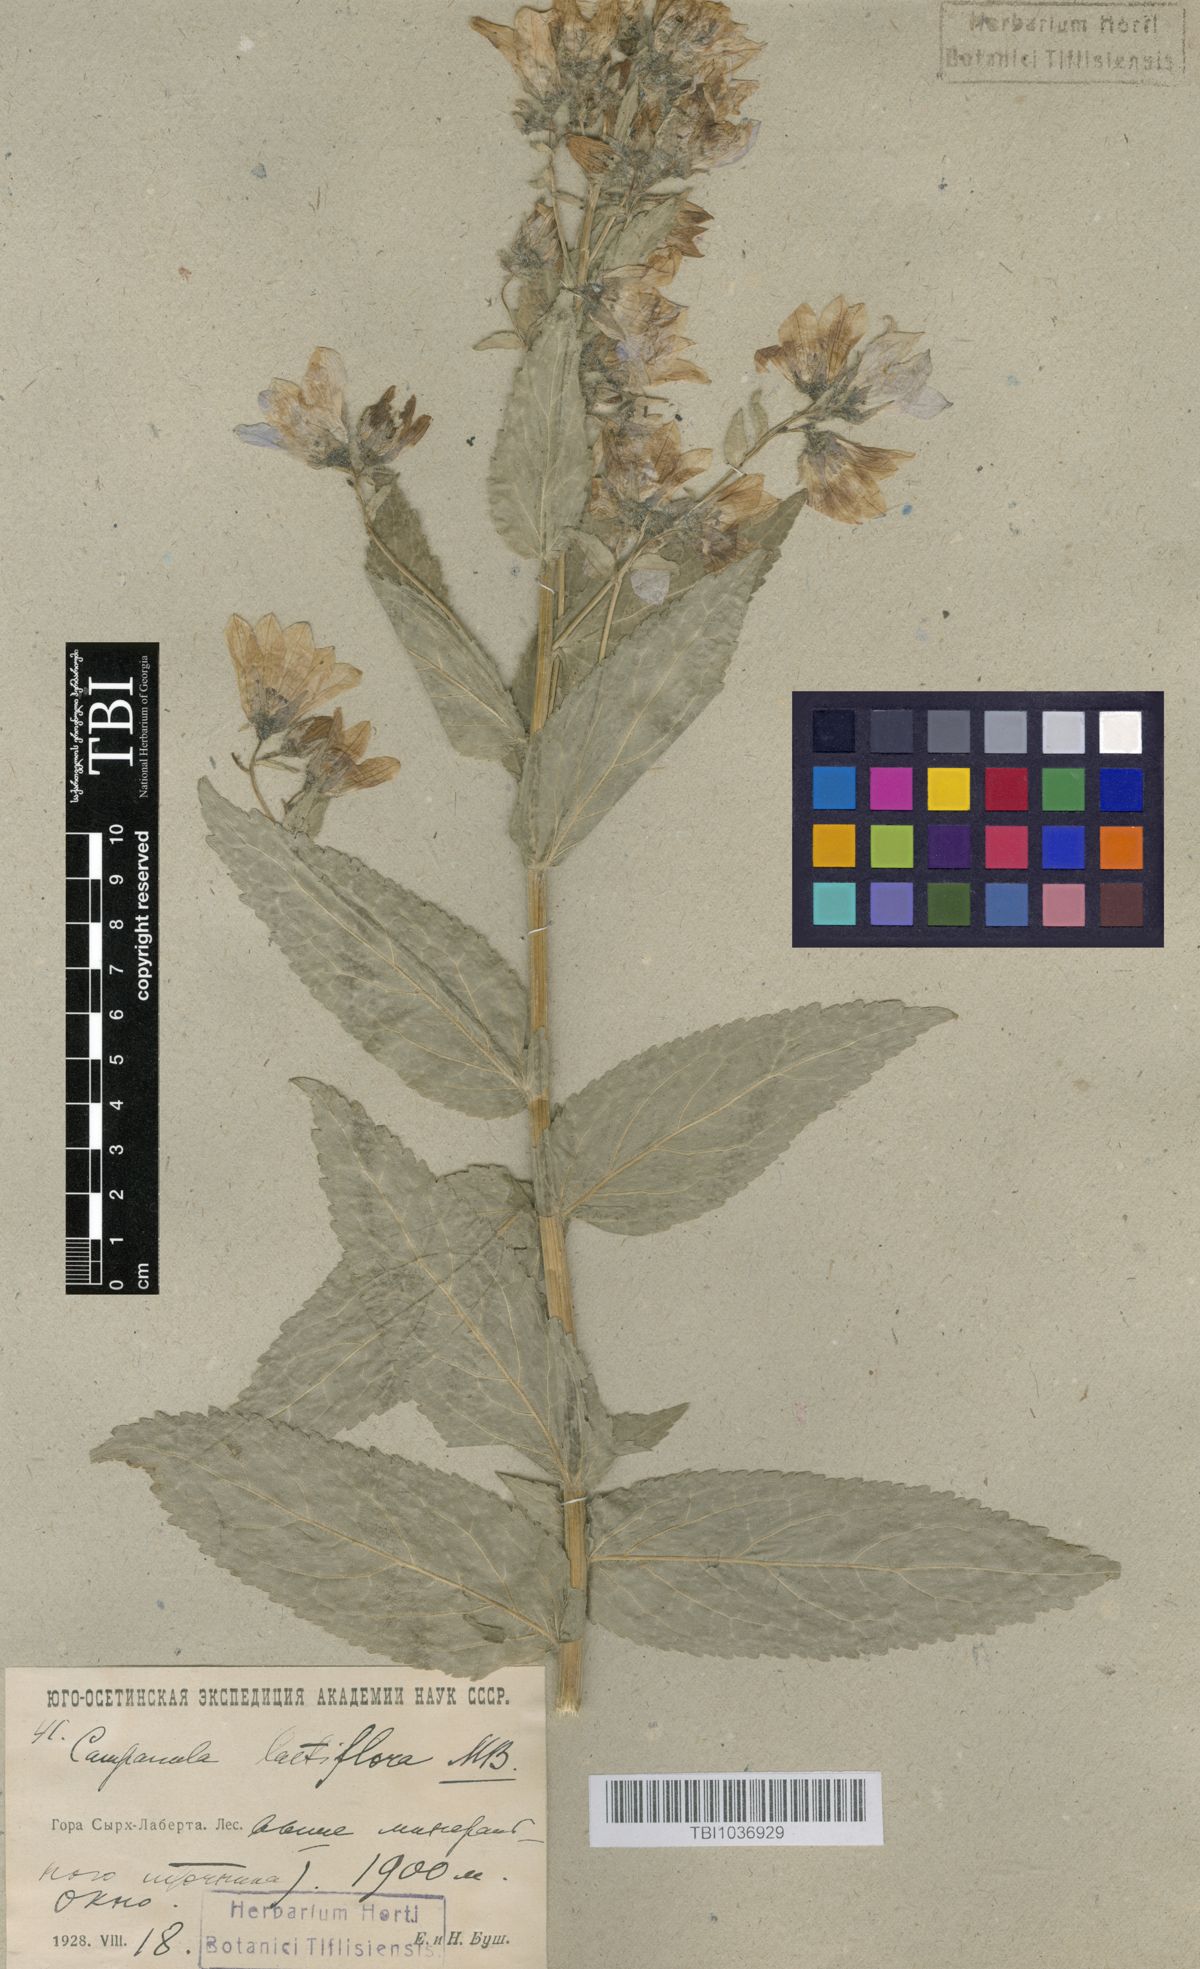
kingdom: Plantae
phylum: Tracheophyta
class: Magnoliopsida
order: Asterales
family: Campanulaceae
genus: Campanula
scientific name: Campanula lactiflora
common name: Milky bellflower
